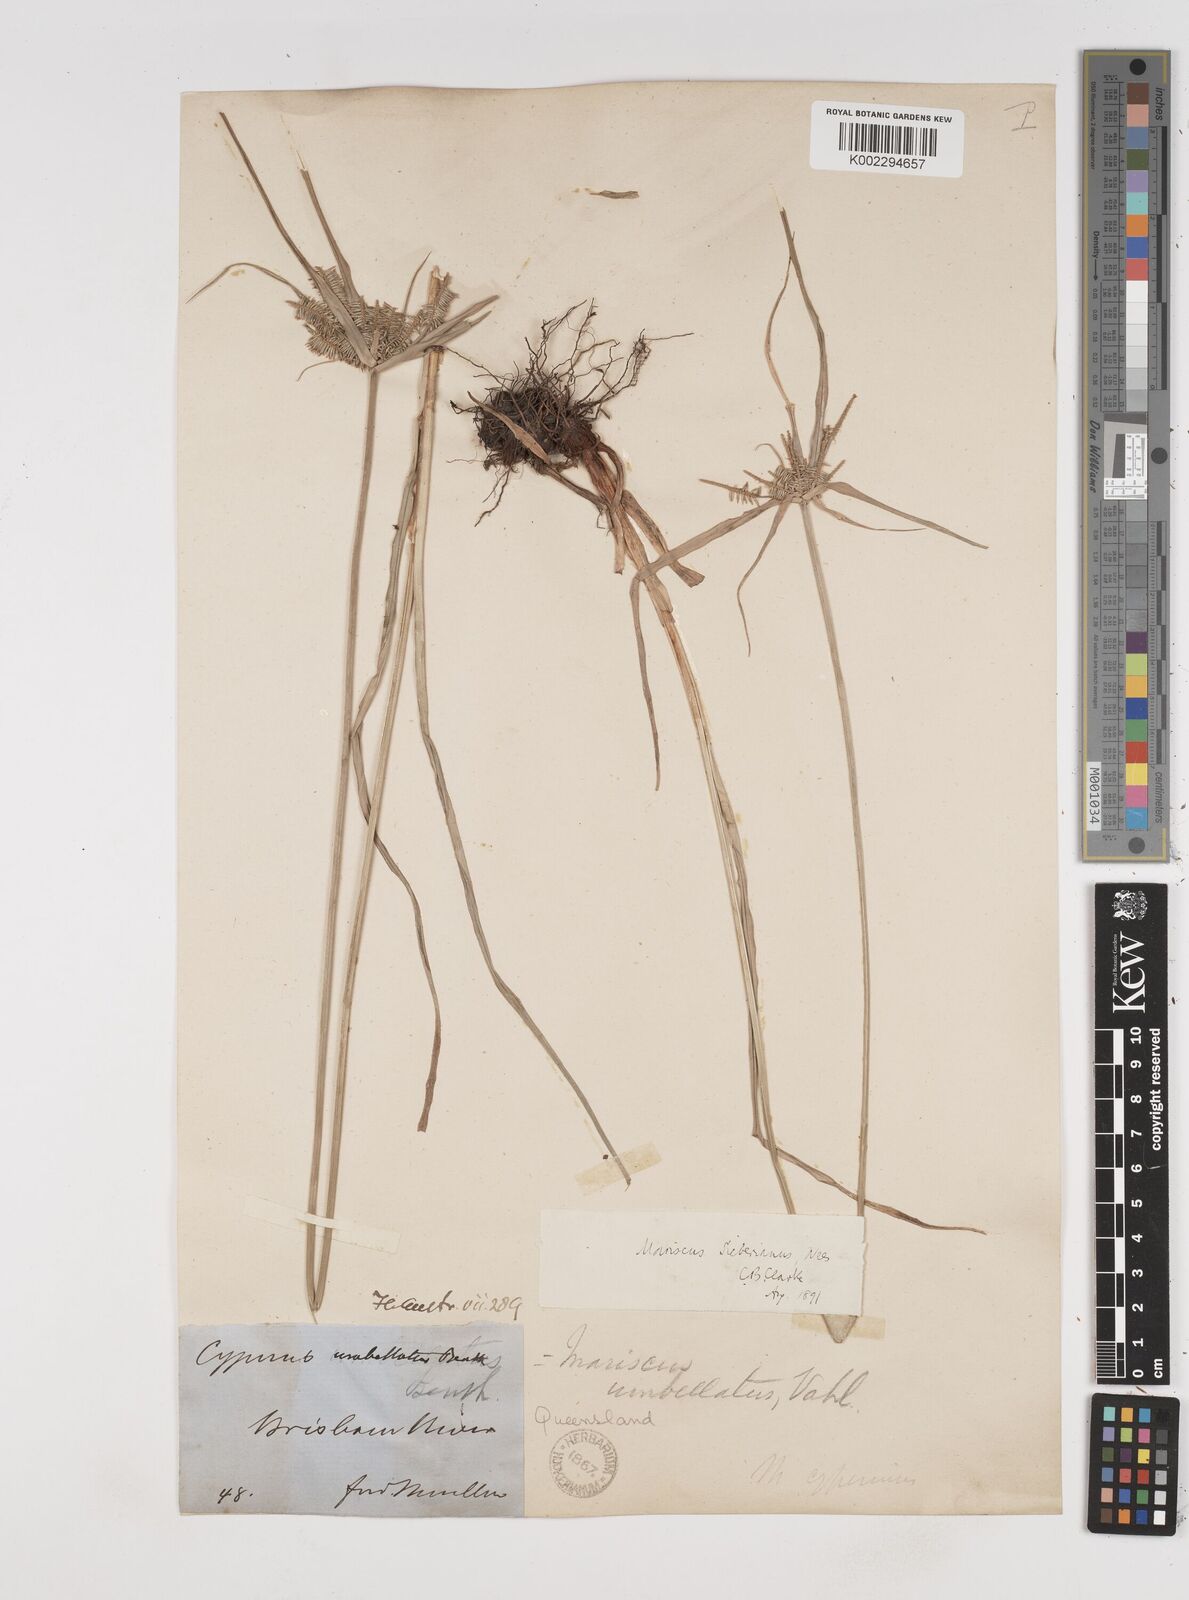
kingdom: Plantae
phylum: Tracheophyta
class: Liliopsida
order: Poales
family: Cyperaceae
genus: Cyperus
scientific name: Cyperus cyperoides
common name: Pacific island flat sedge
